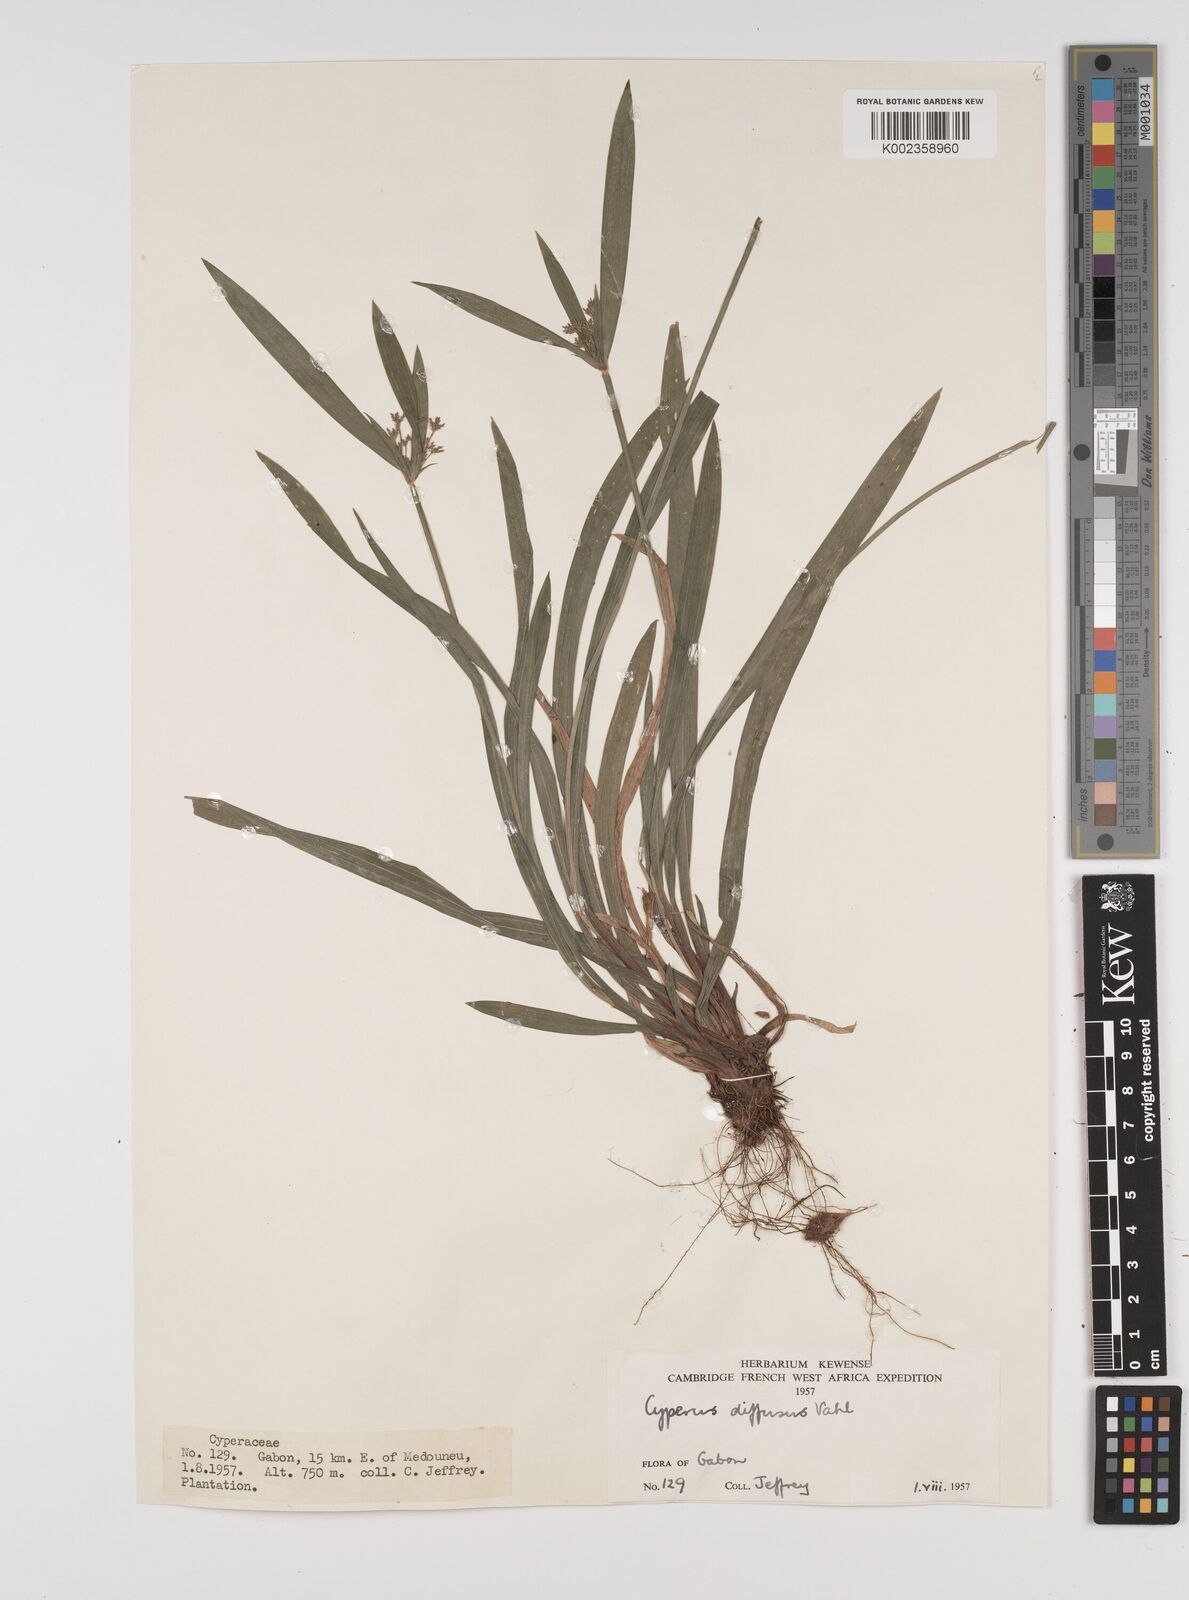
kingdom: Plantae
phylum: Tracheophyta
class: Liliopsida
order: Poales
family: Cyperaceae
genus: Cyperus
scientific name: Cyperus diffusus
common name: Dwarf umbrella grass
